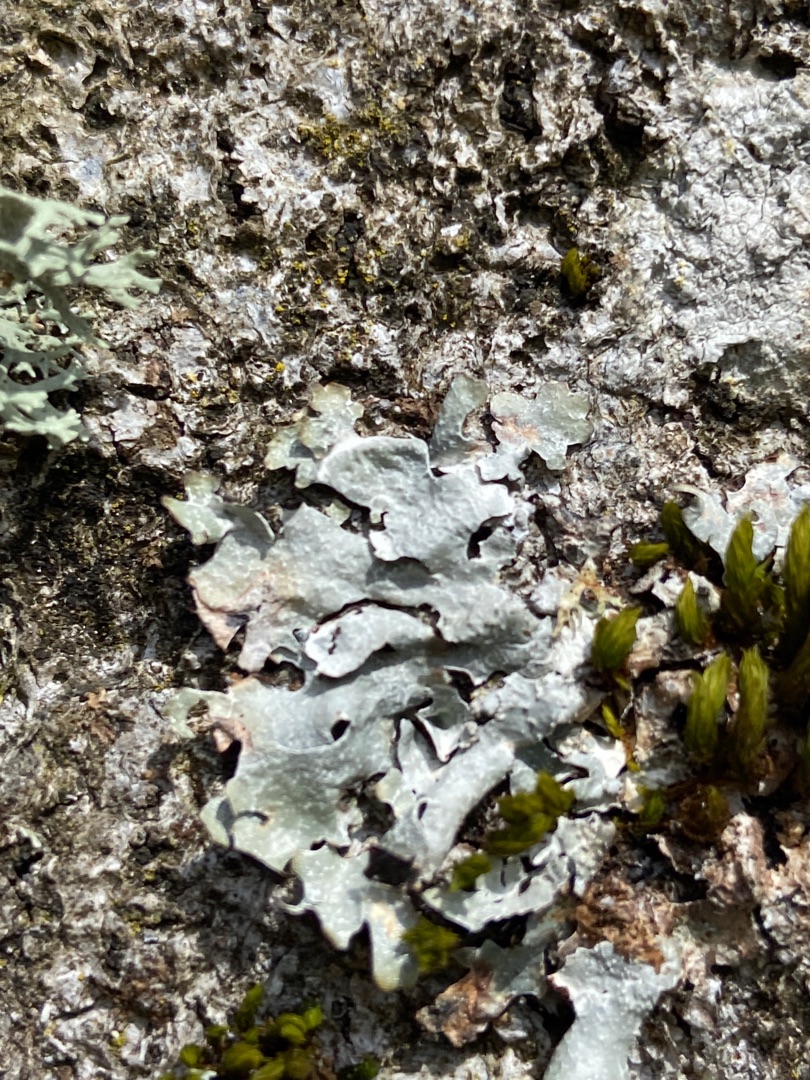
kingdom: Fungi
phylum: Ascomycota
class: Lecanoromycetes
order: Lecanorales
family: Parmeliaceae
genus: Parmelia
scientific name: Parmelia sulcata
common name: Rynket skållav
